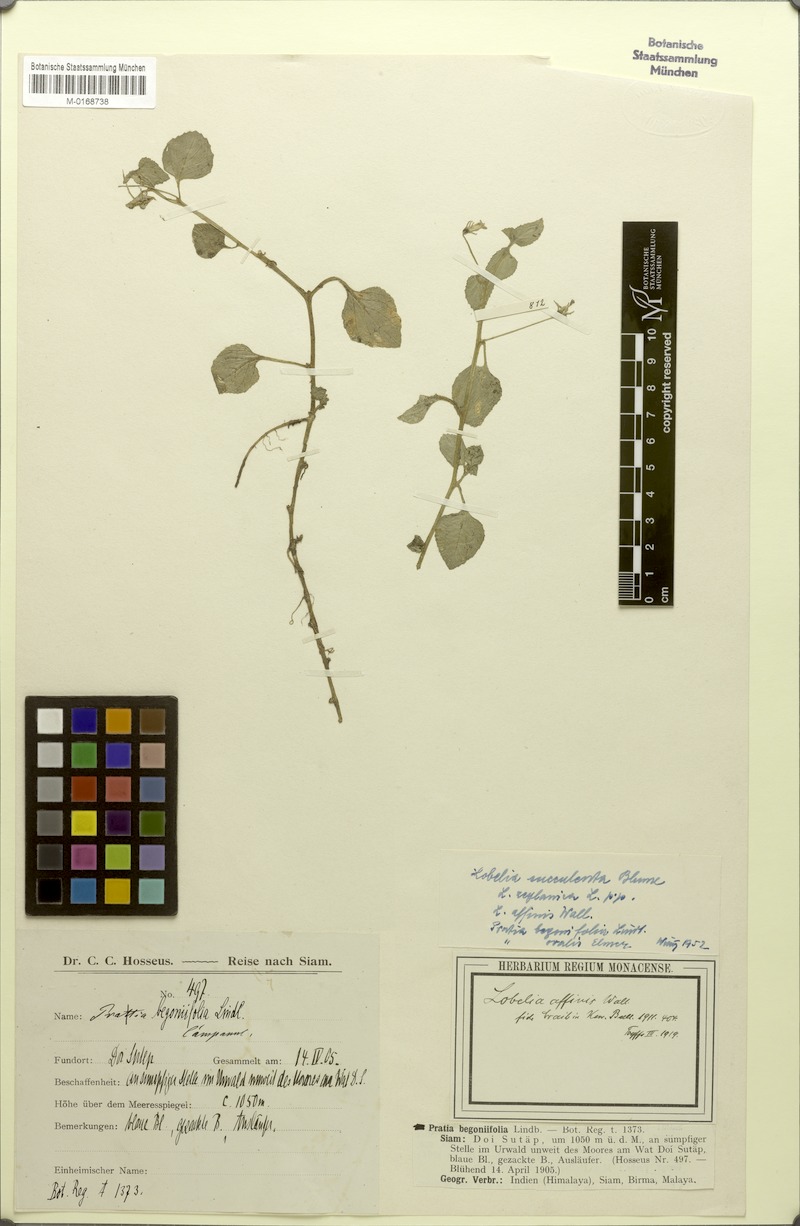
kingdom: Plantae
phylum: Tracheophyta
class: Magnoliopsida
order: Asterales
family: Campanulaceae
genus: Lobelia
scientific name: Lobelia zeylanica
